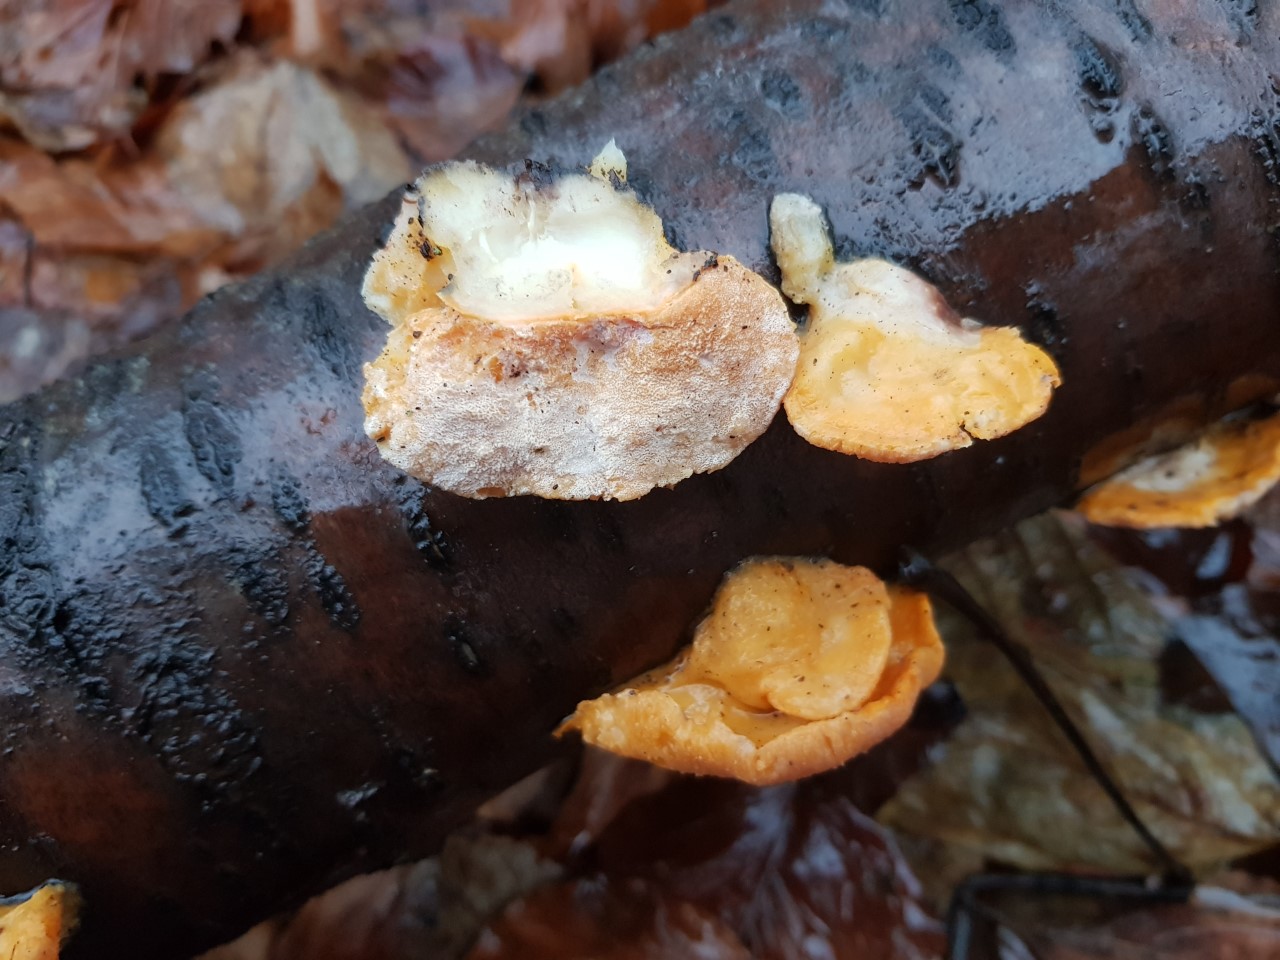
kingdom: Fungi
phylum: Ascomycota
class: Sordariomycetes
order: Hypocreales
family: Hypocreaceae
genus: Protocrea
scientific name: Protocrea pallida
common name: bleg kødkerne
